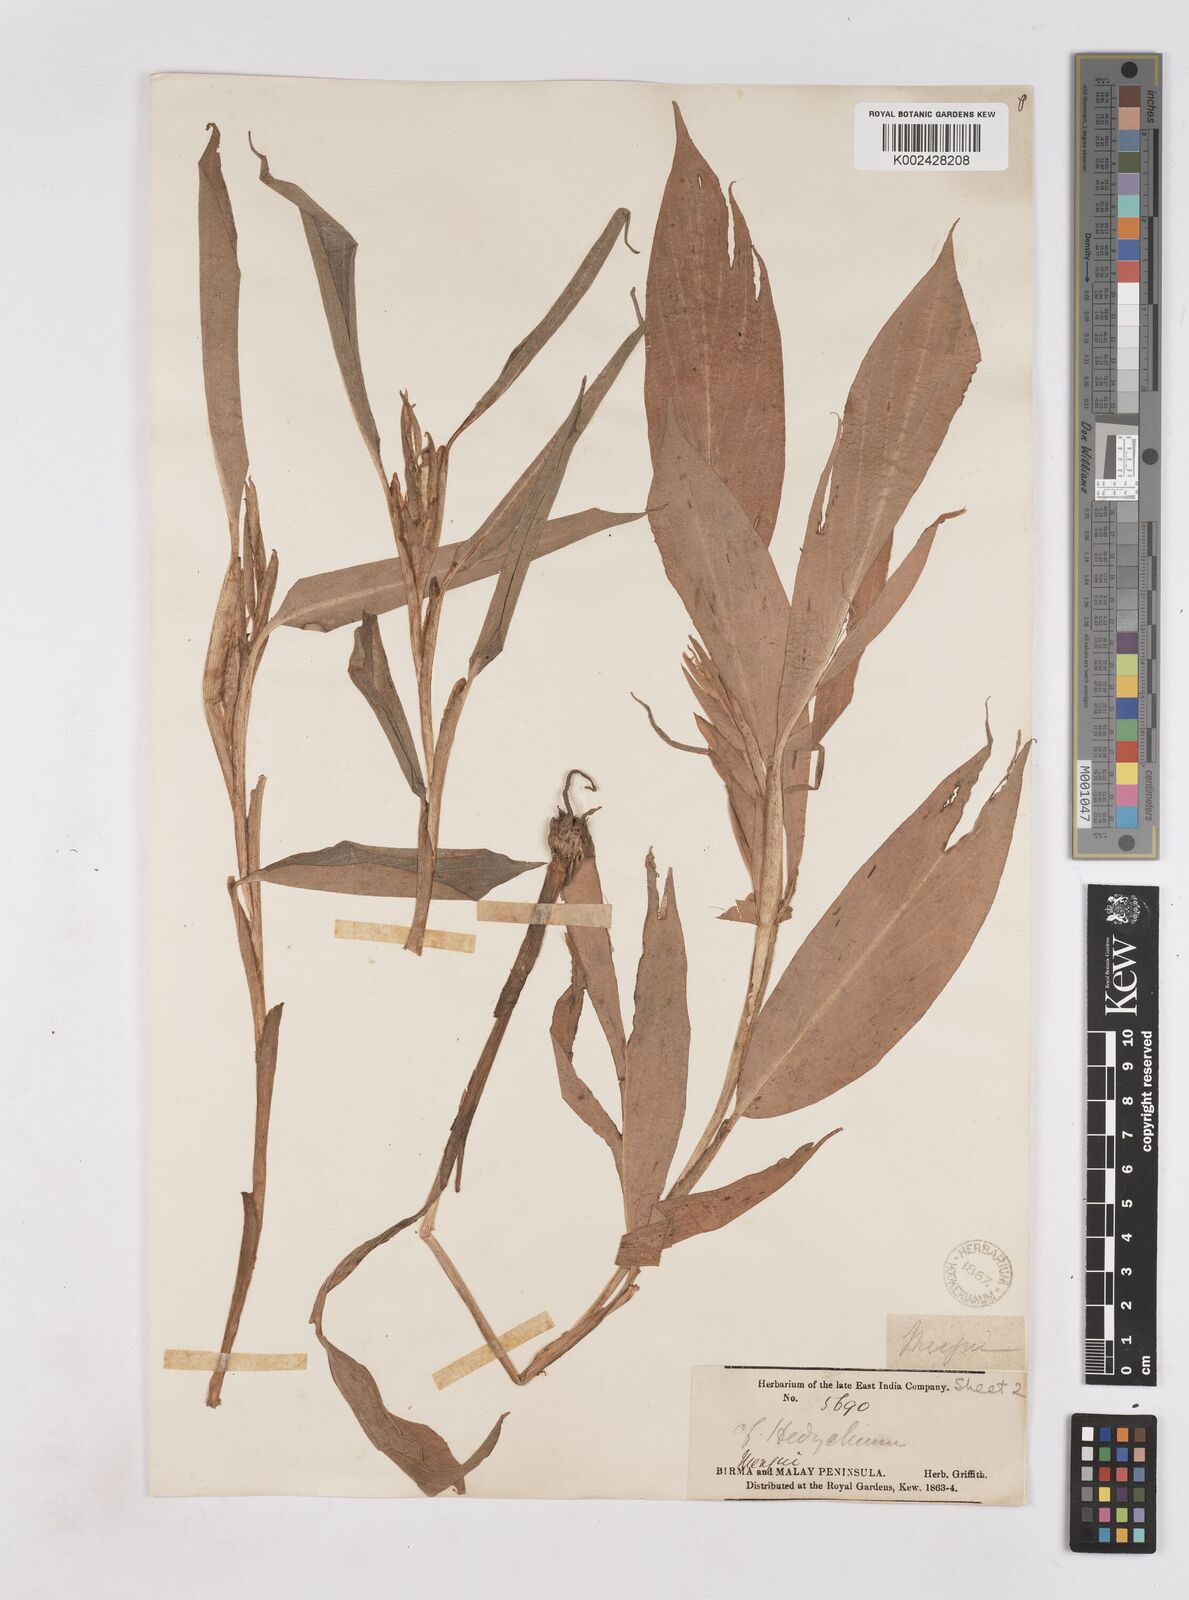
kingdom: Plantae
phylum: Tracheophyta
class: Liliopsida
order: Zingiberales
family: Zingiberaceae
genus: Boesenbergia
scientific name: Boesenbergia pulcherrima
